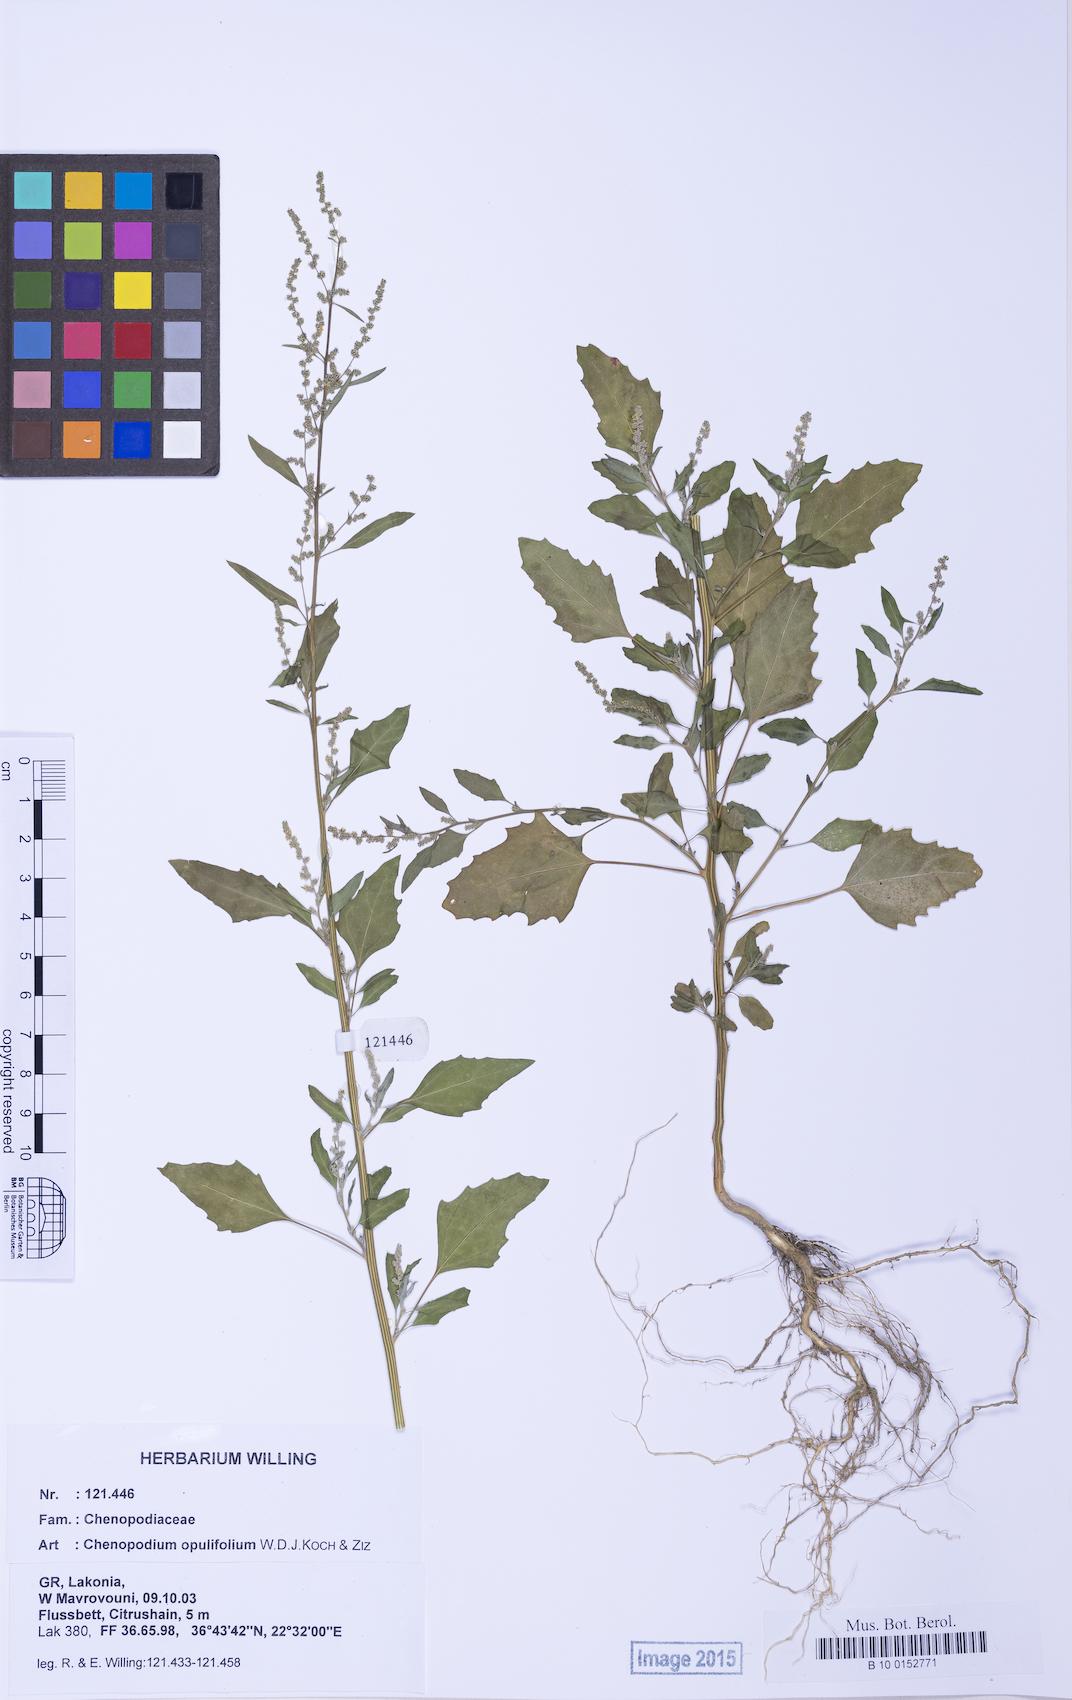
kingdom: Plantae
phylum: Tracheophyta
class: Magnoliopsida
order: Caryophyllales
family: Amaranthaceae
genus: Chenopodium
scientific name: Chenopodium album
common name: Fat-hen
